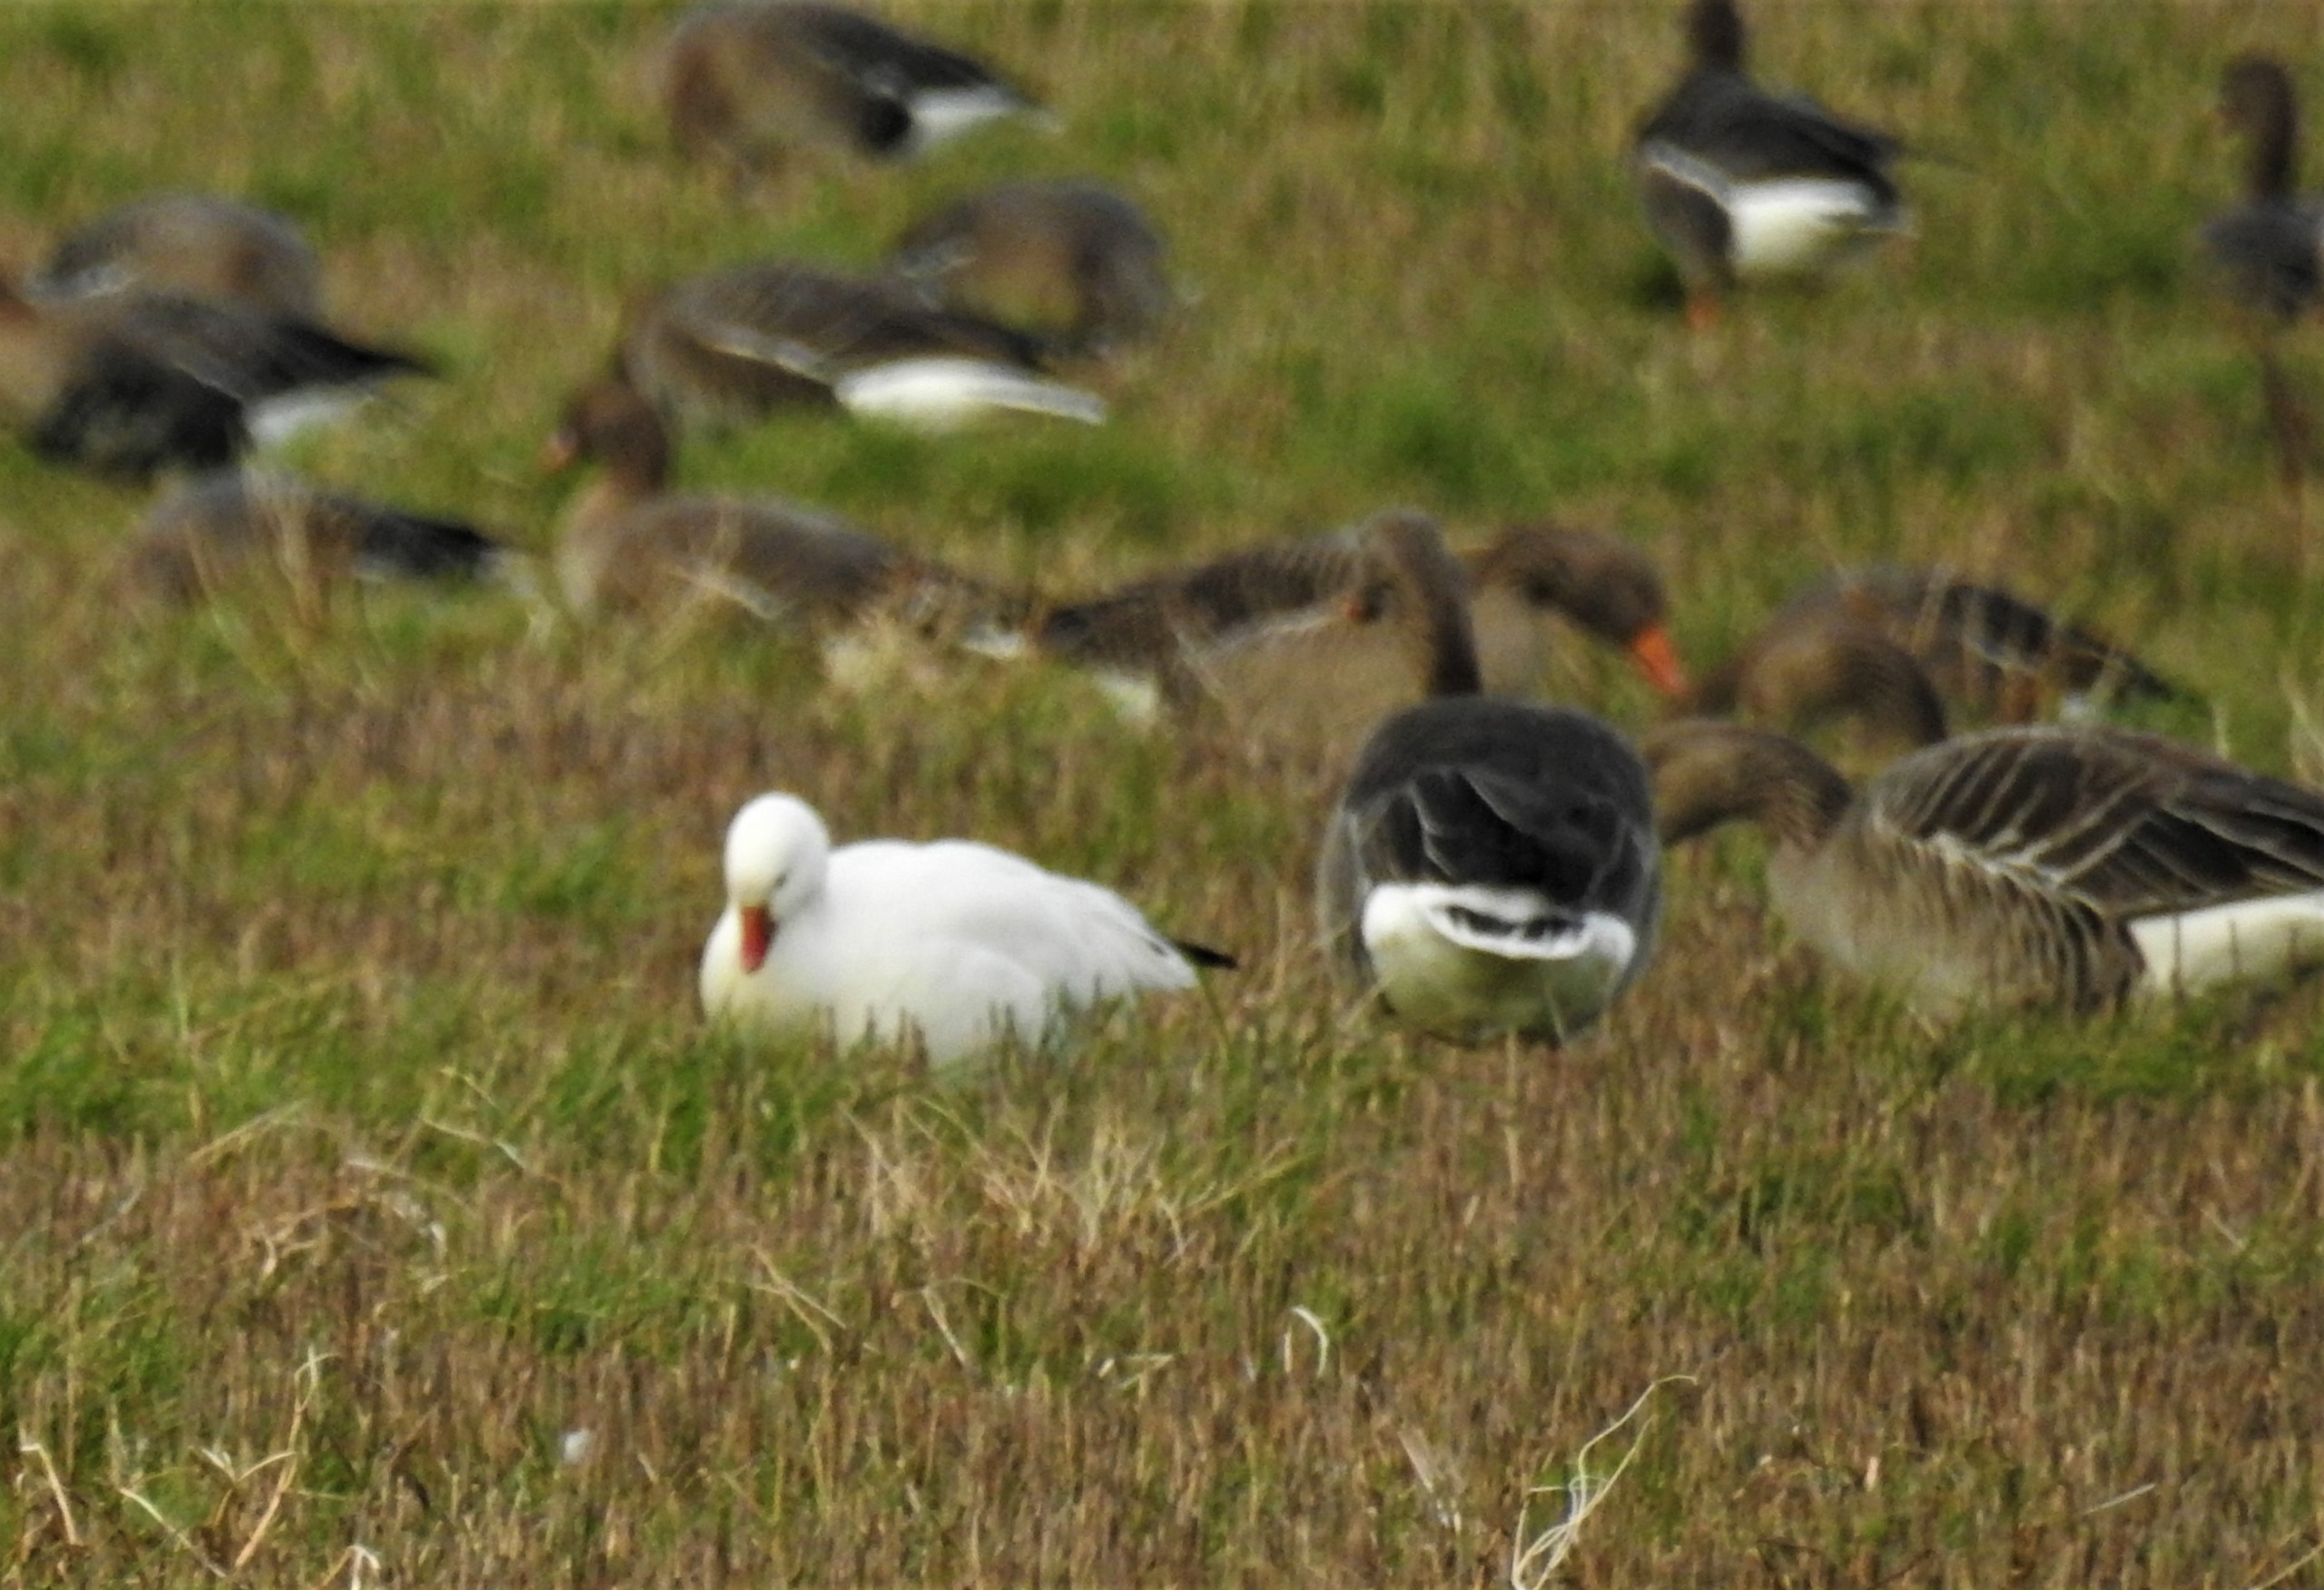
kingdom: Animalia
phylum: Chordata
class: Aves
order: Anseriformes
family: Anatidae
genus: Anser
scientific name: Anser rossii
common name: Dværgsnegås
